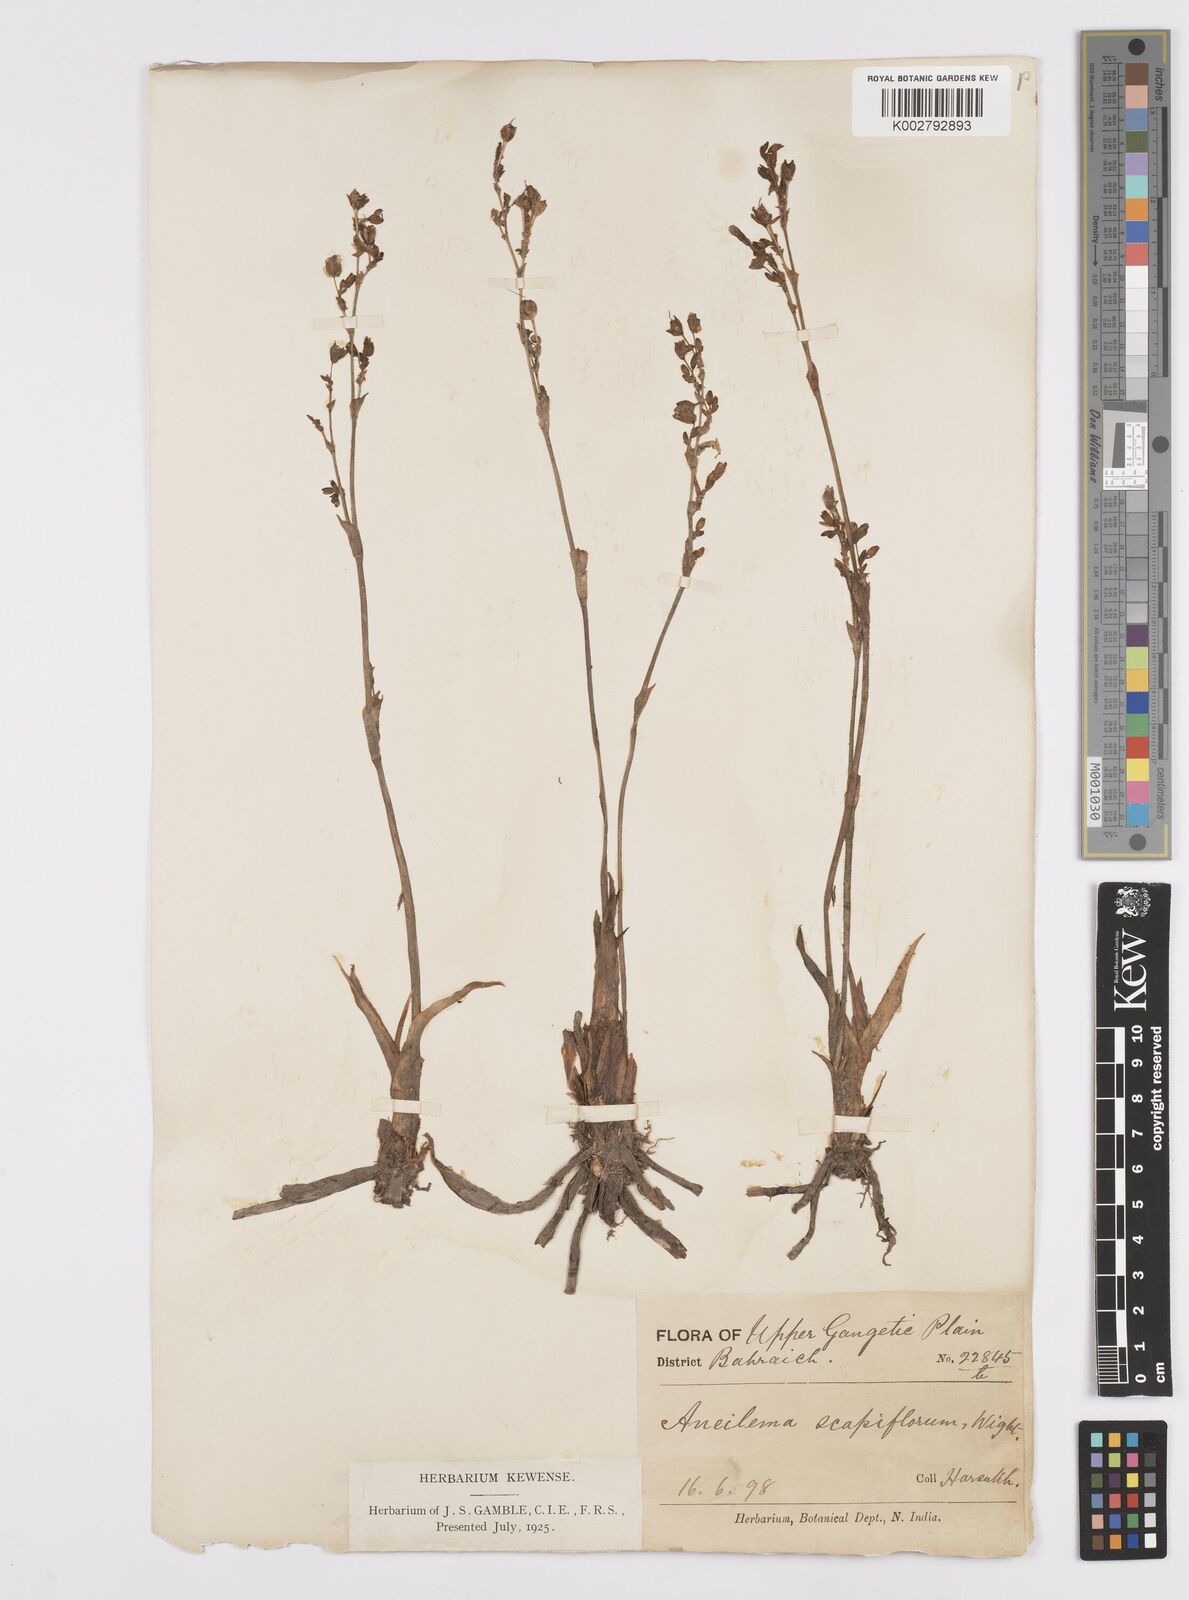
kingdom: Plantae
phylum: Tracheophyta
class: Liliopsida
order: Commelinales
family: Commelinaceae
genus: Murdannia
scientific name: Murdannia
